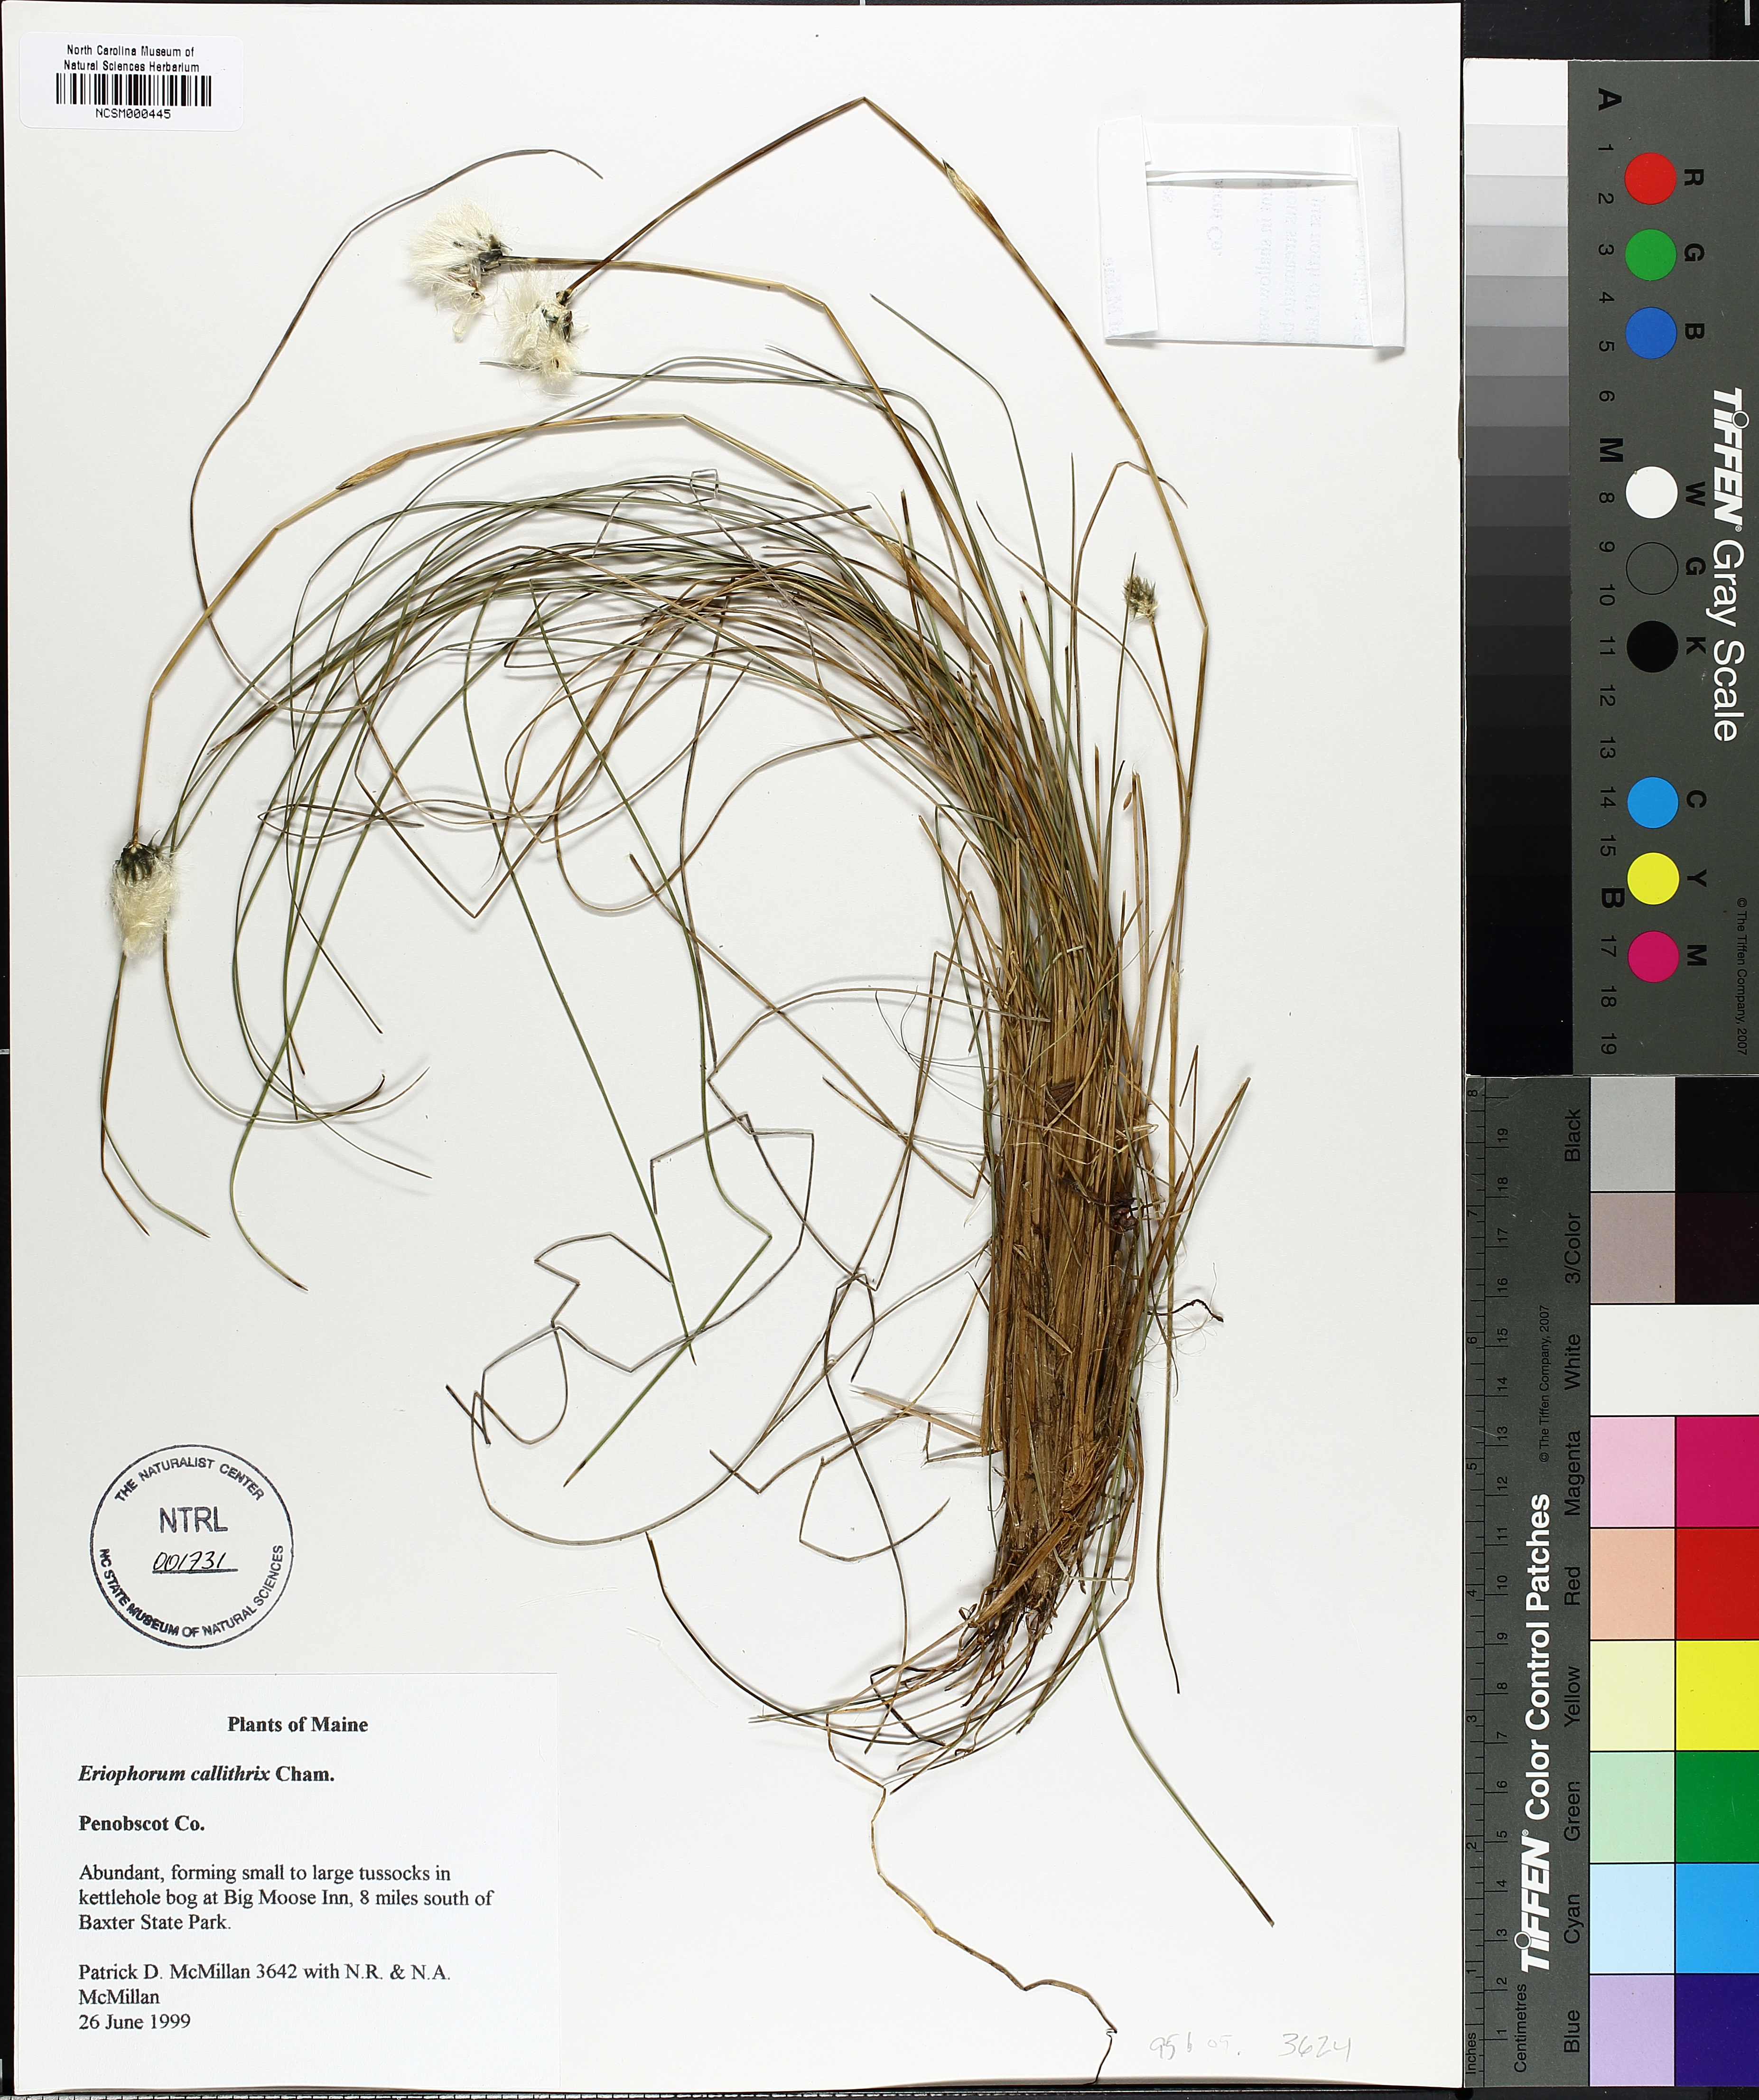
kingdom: Plantae
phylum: Tracheophyta
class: Liliopsida
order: Poales
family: Cyperaceae
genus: Eriophorum
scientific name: Eriophorum callitrix
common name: Arctic cottongrass
